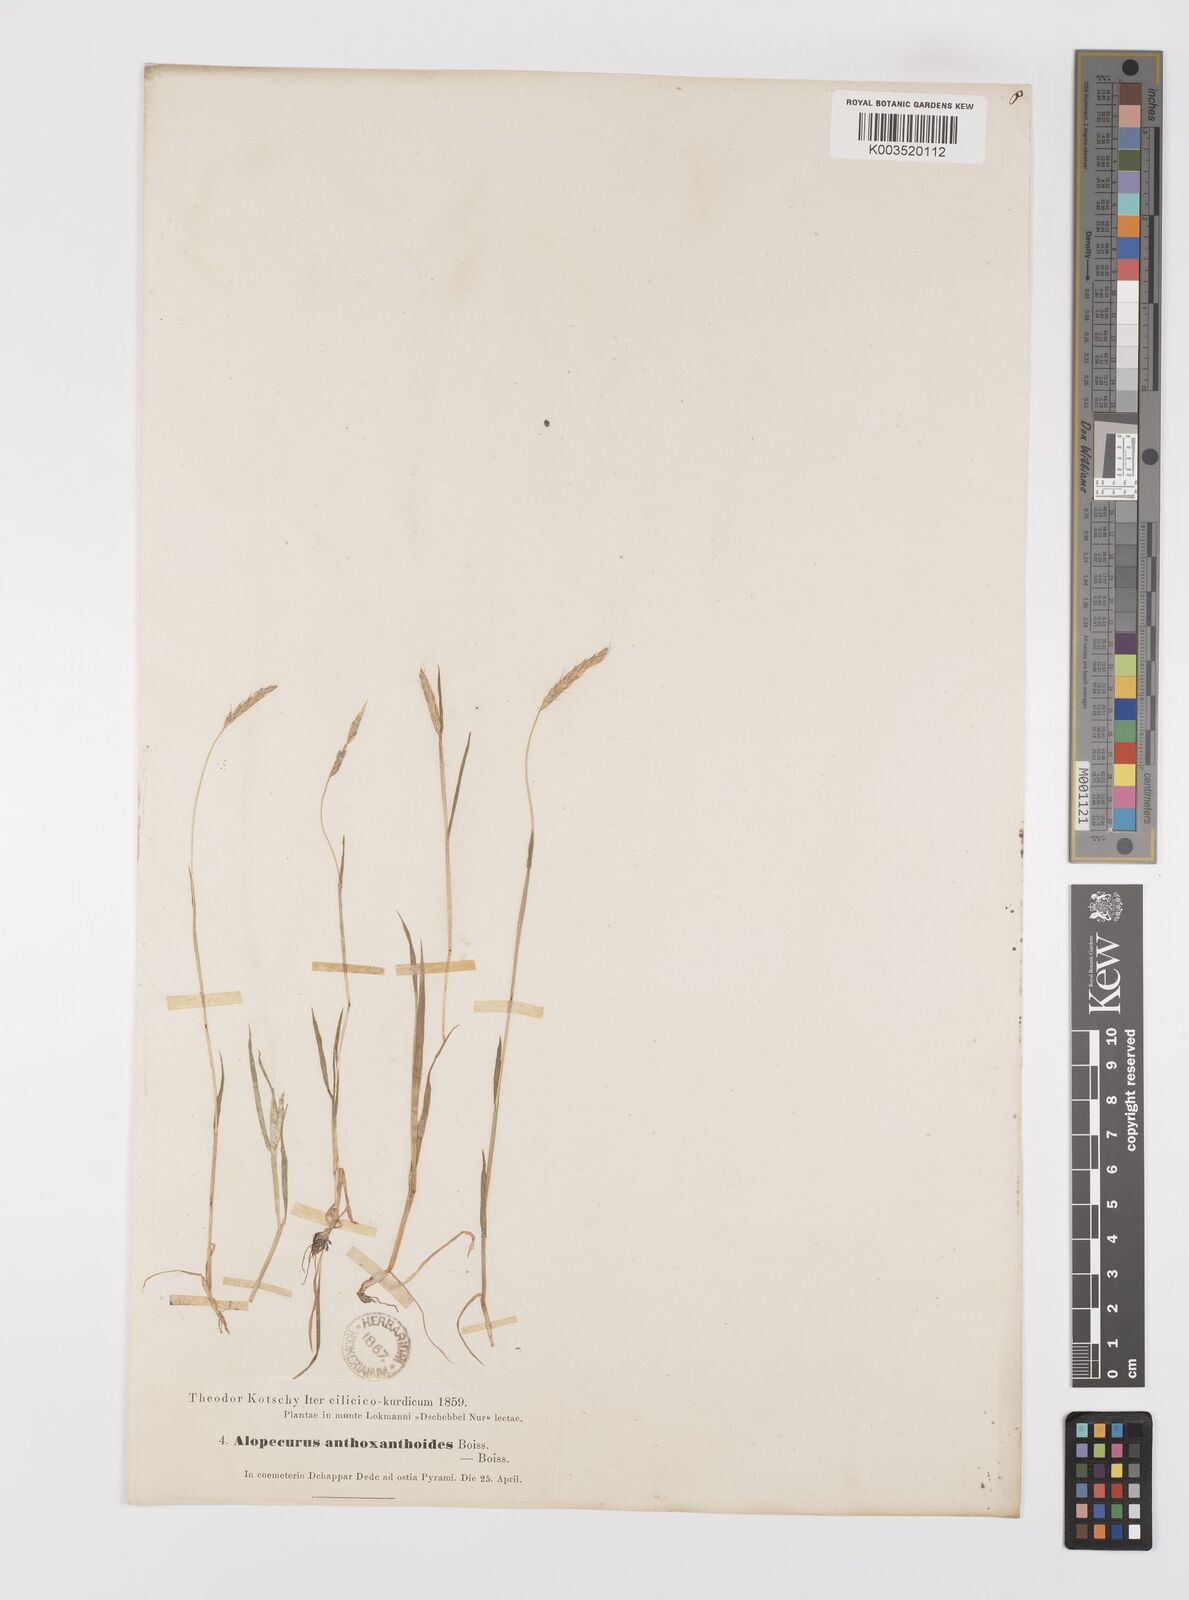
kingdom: Plantae
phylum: Tracheophyta
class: Liliopsida
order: Poales
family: Poaceae
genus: Alopecurus
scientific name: Alopecurus myosuroides
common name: Black-grass
